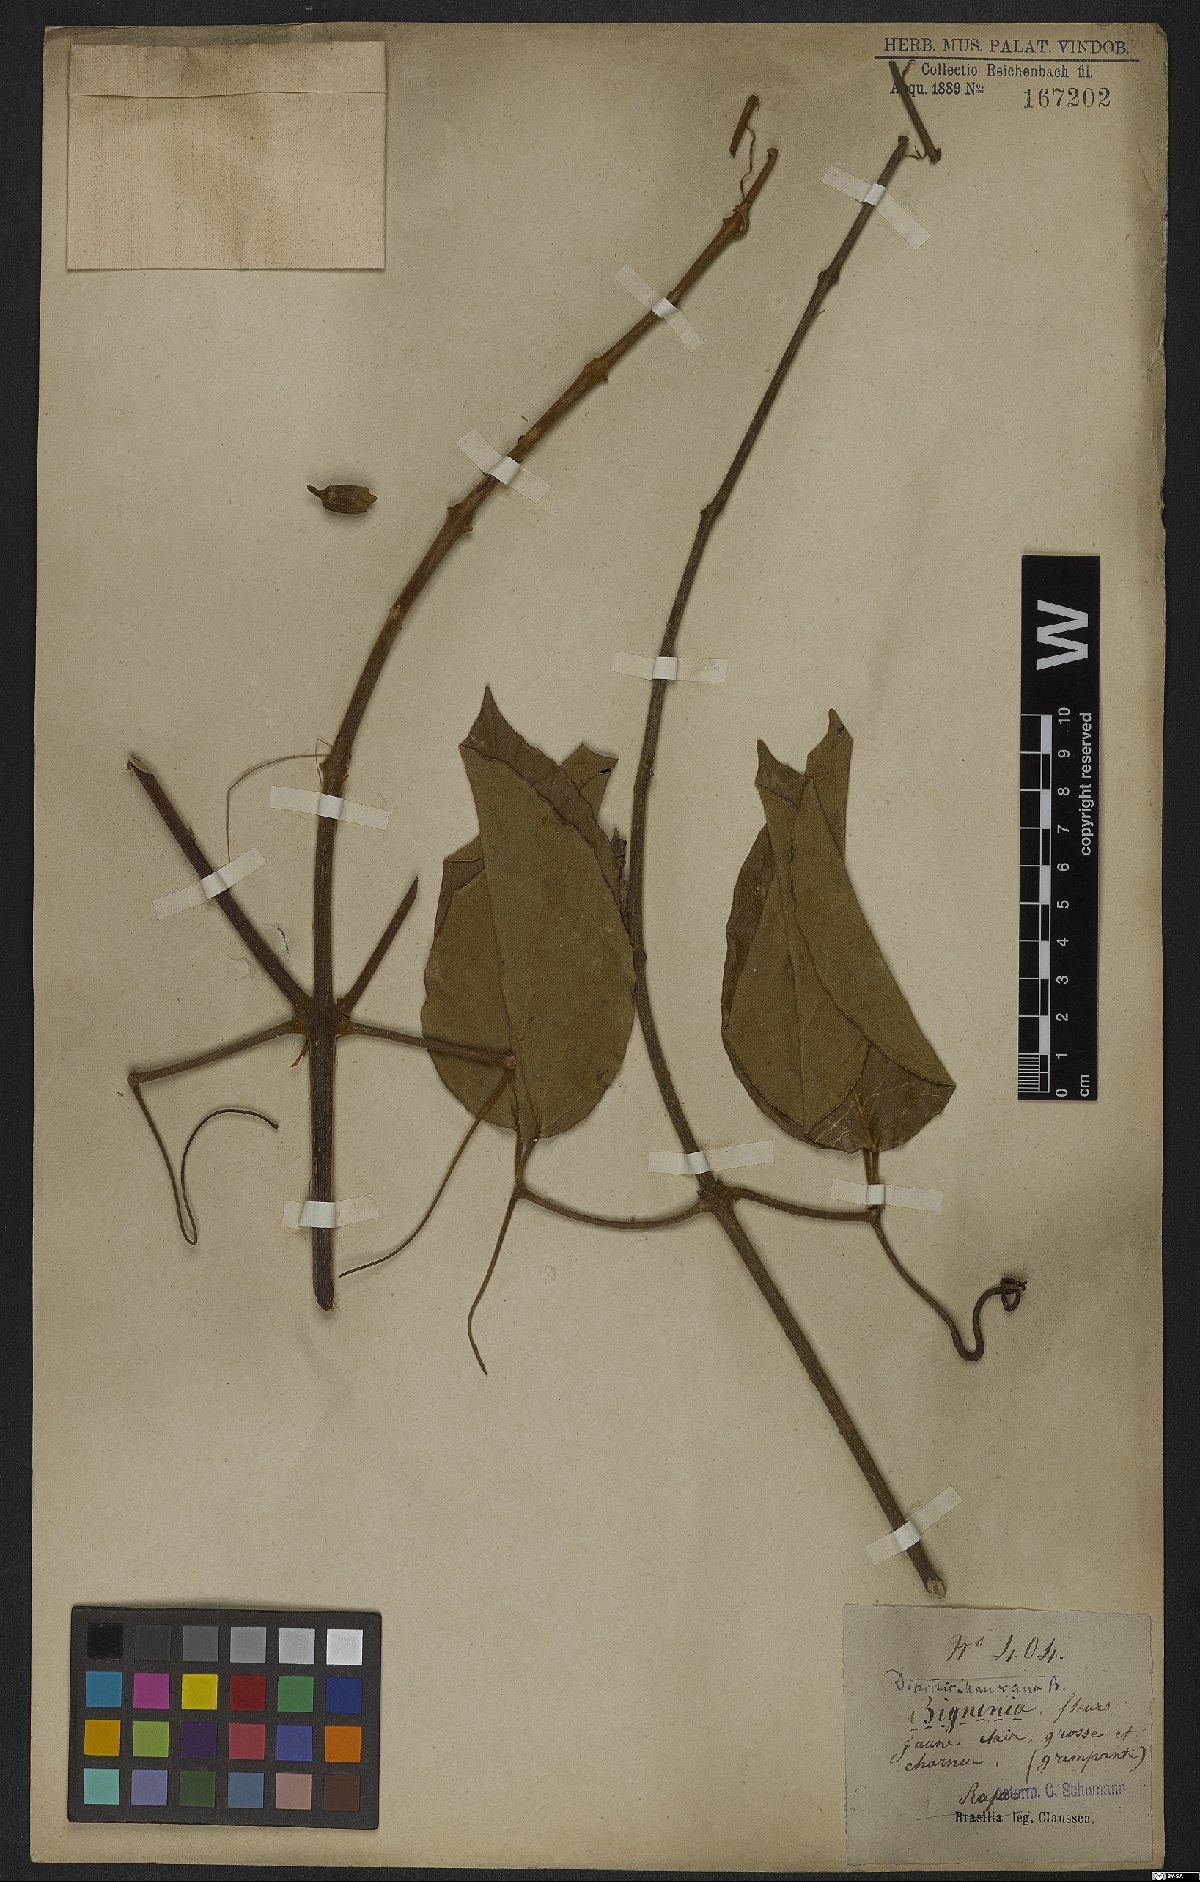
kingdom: Plantae
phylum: Tracheophyta
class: Magnoliopsida
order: Lamiales
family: Bignoniaceae
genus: Amphilophium
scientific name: Amphilophium mansoanum
